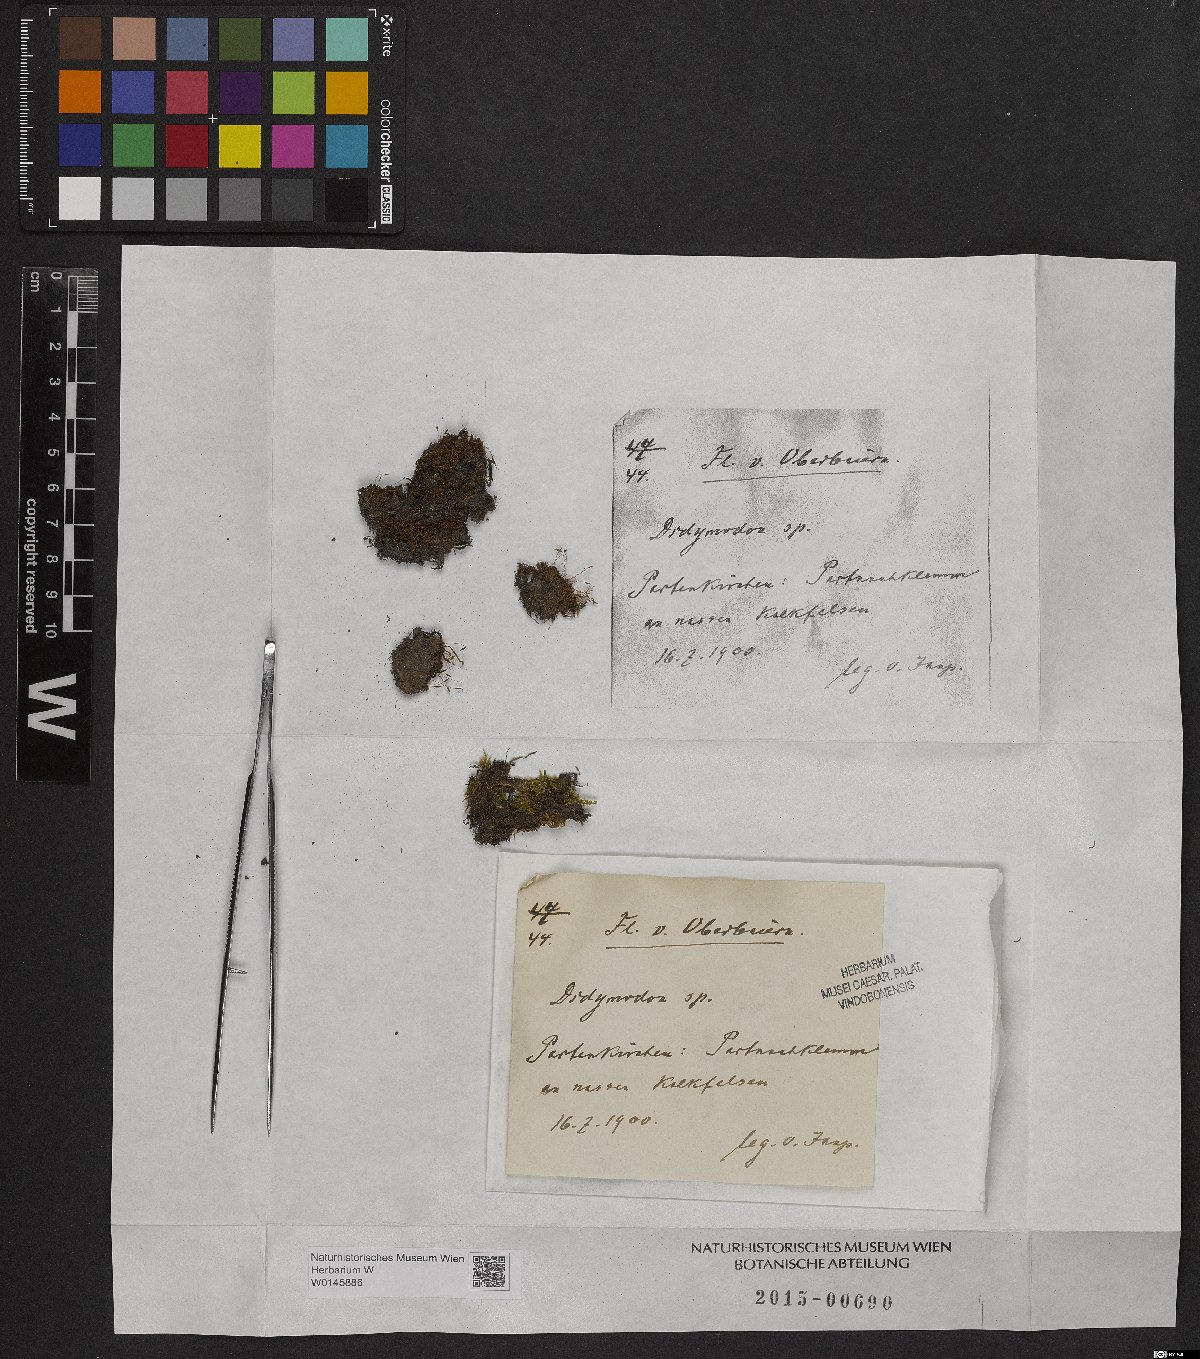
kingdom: Plantae
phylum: Bryophyta
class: Bryopsida
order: Pottiales
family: Pottiaceae
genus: Didymodon
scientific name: Didymodon
